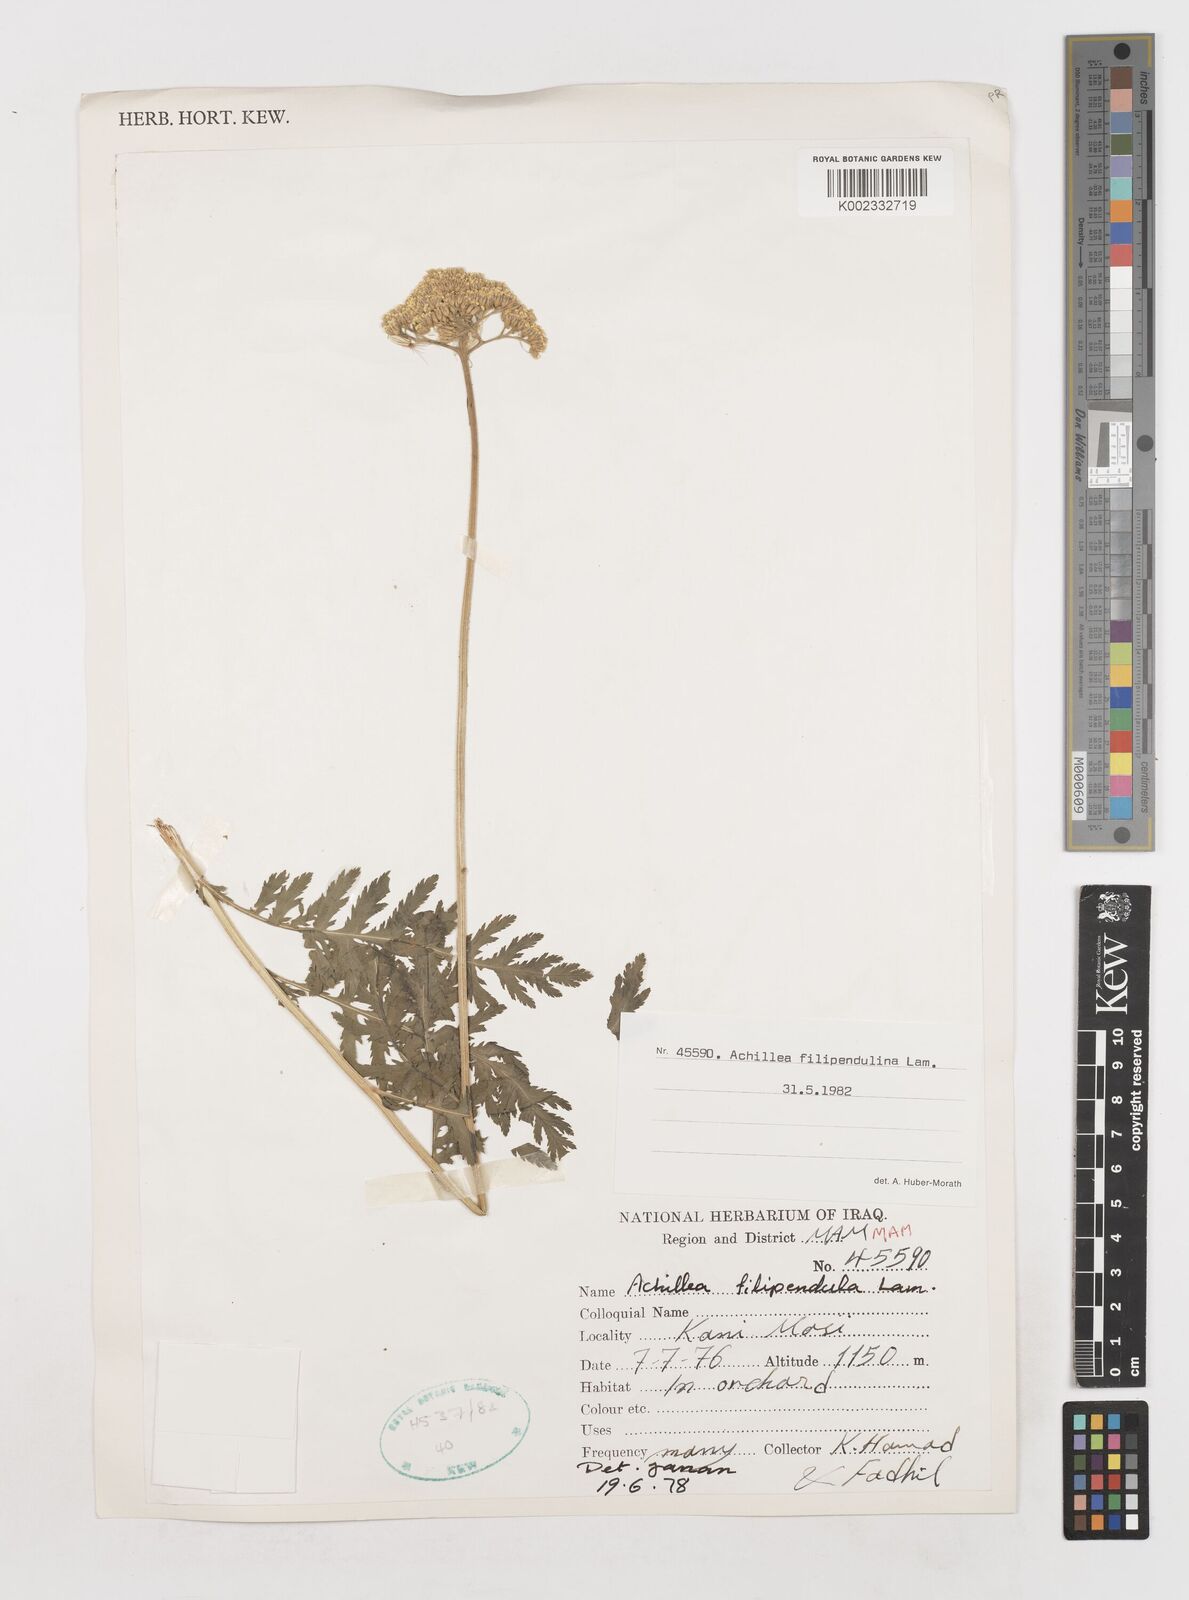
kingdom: Plantae
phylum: Tracheophyta
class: Magnoliopsida
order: Asterales
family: Asteraceae
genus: Achillea
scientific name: Achillea filipendulina
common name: Fernleaf yarrow
